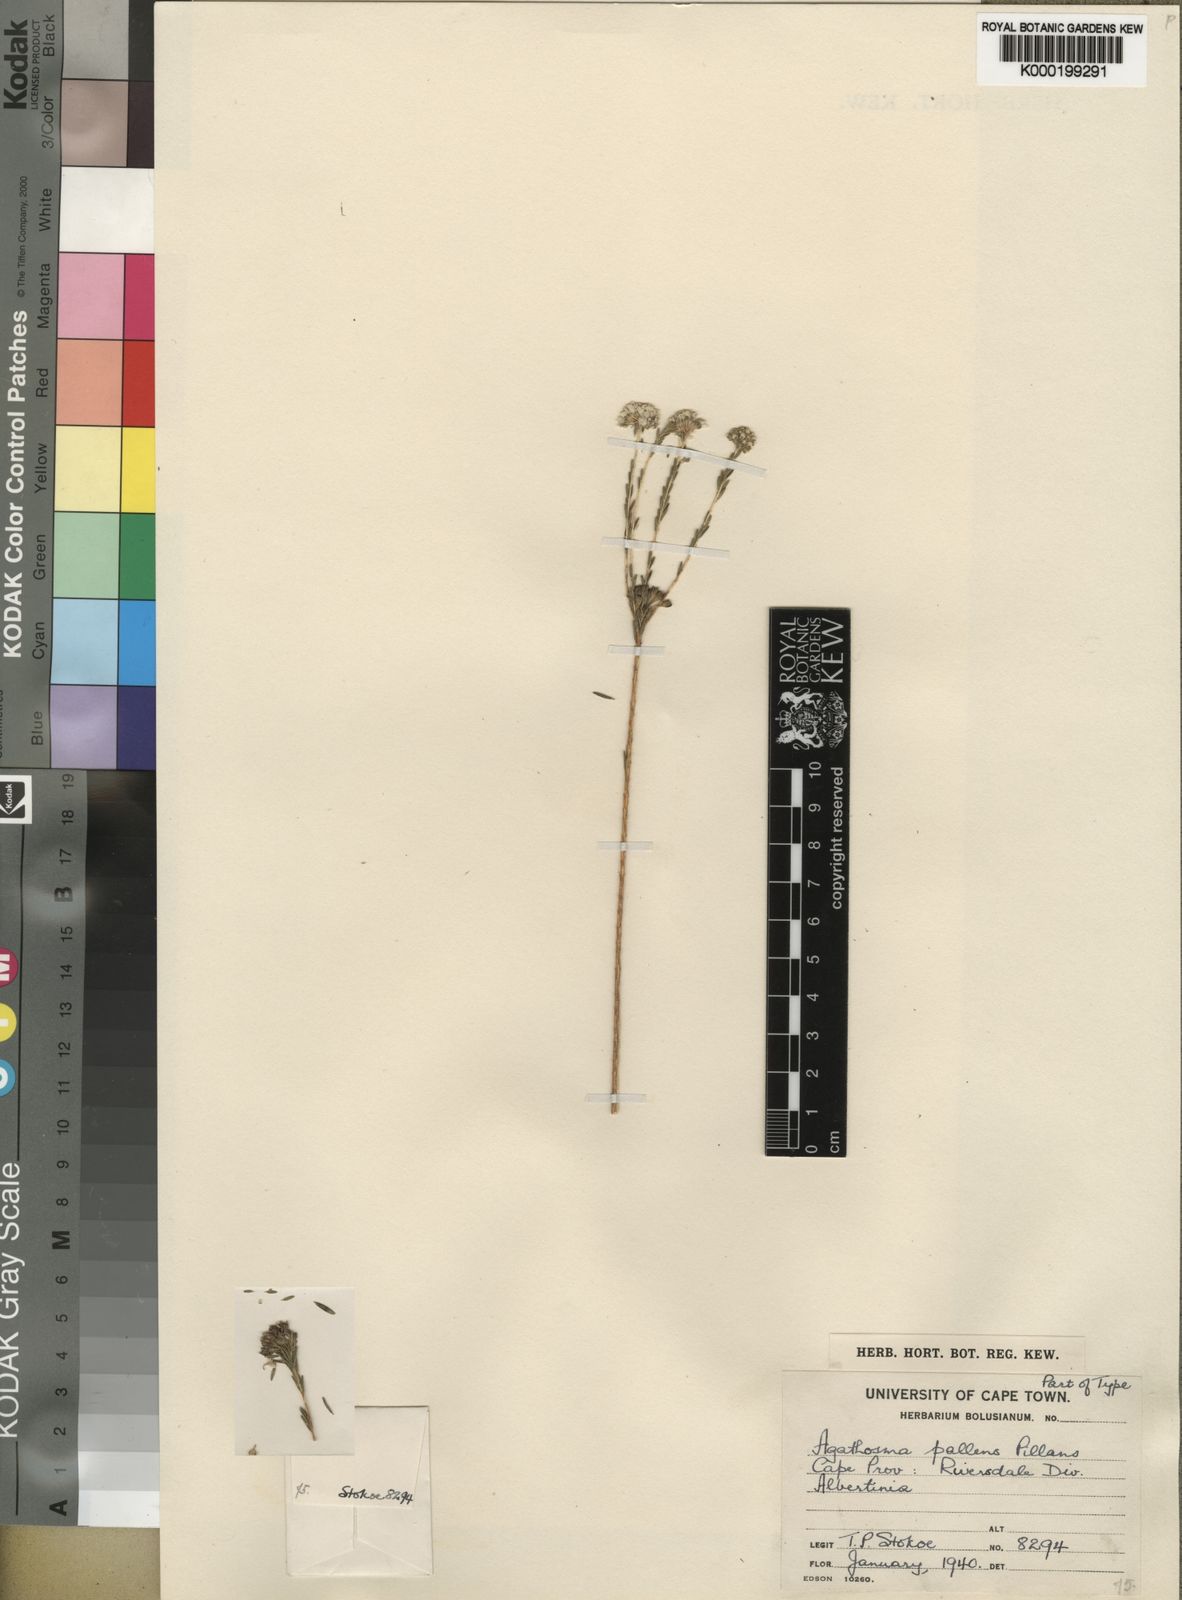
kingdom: Plantae
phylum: Tracheophyta
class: Magnoliopsida
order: Sapindales
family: Rutaceae
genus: Agathosma
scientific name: Agathosma pallens
